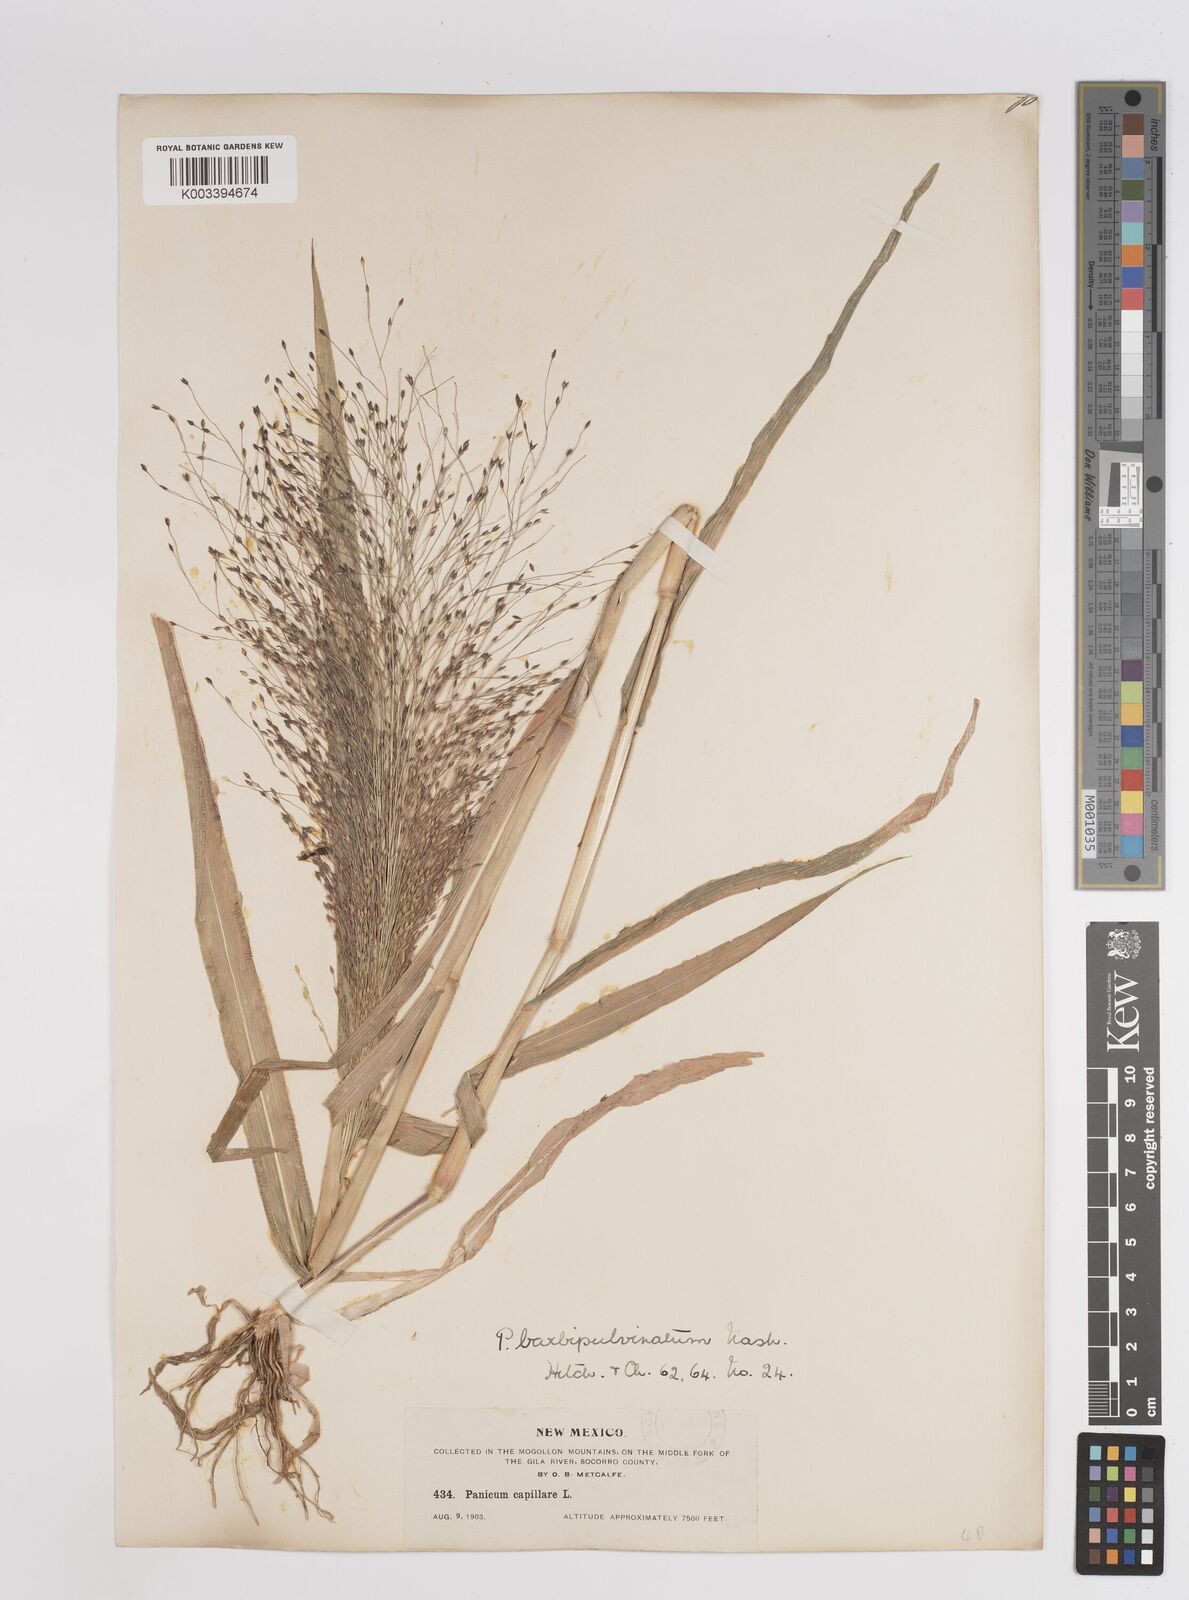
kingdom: Plantae
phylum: Tracheophyta
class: Liliopsida
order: Poales
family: Poaceae
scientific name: Poaceae
